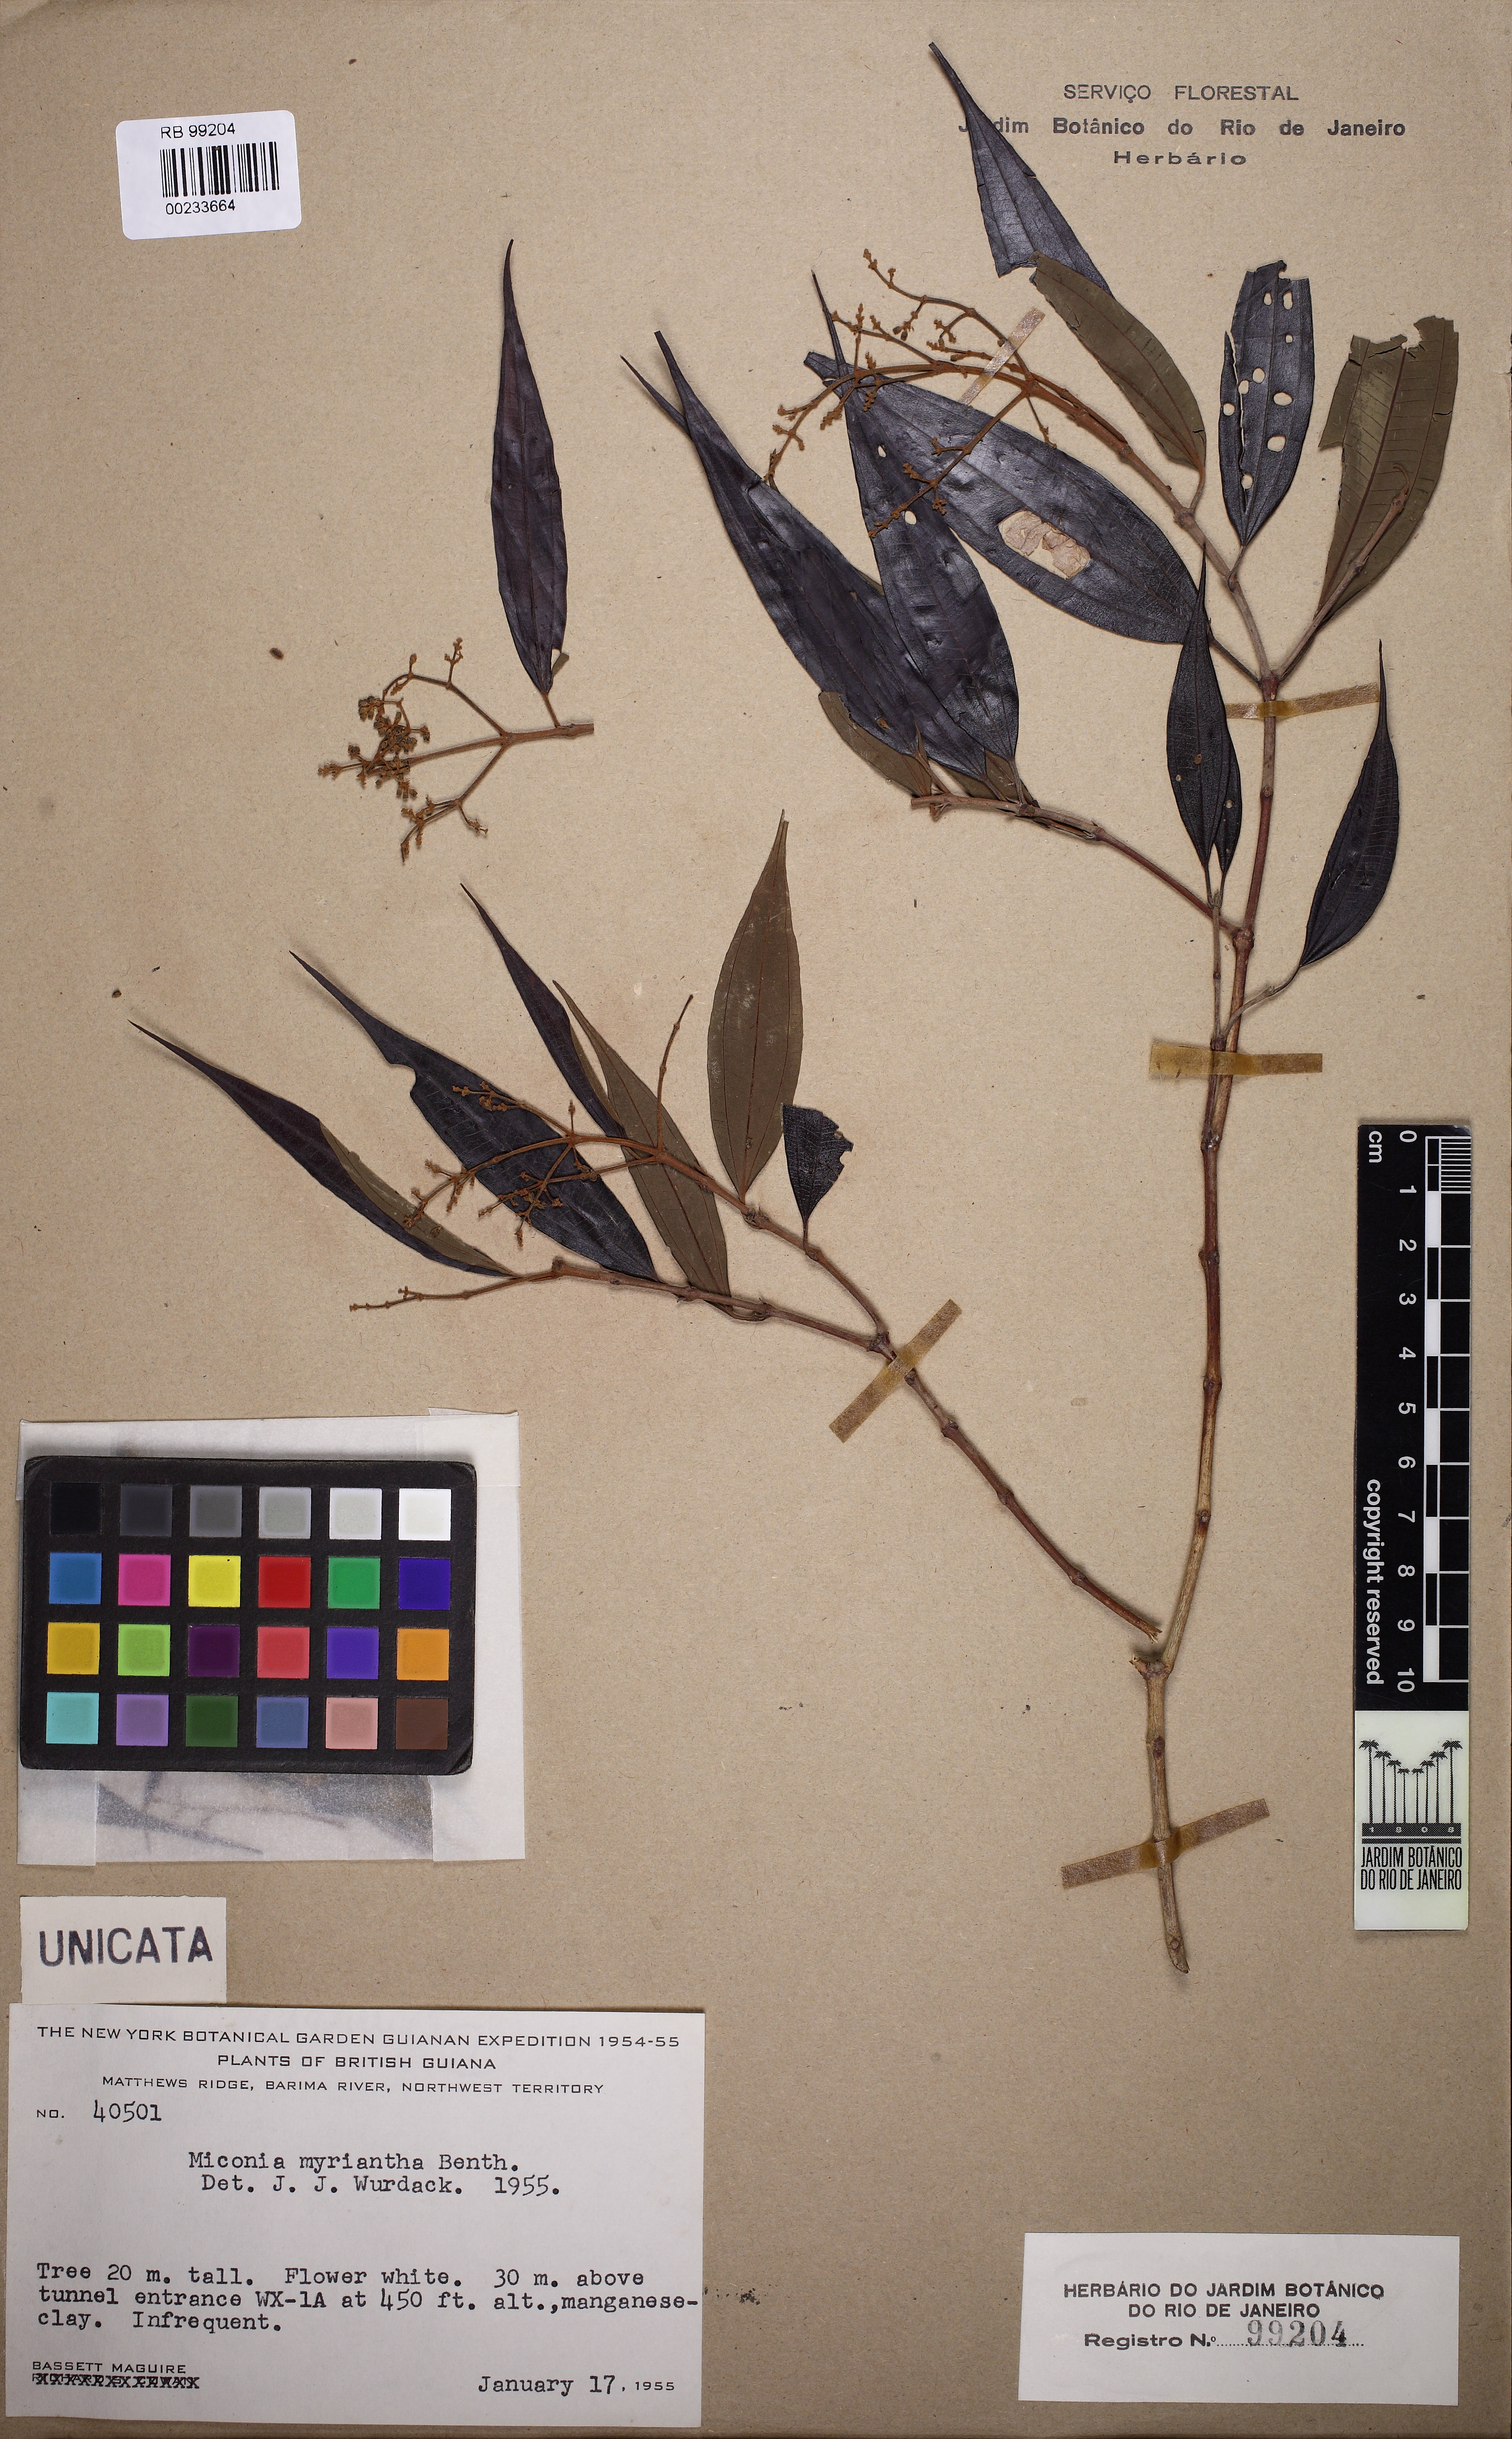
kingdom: Plantae
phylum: Tracheophyta
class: Magnoliopsida
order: Myrtales
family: Melastomataceae
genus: Miconia
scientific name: Miconia myriantha
